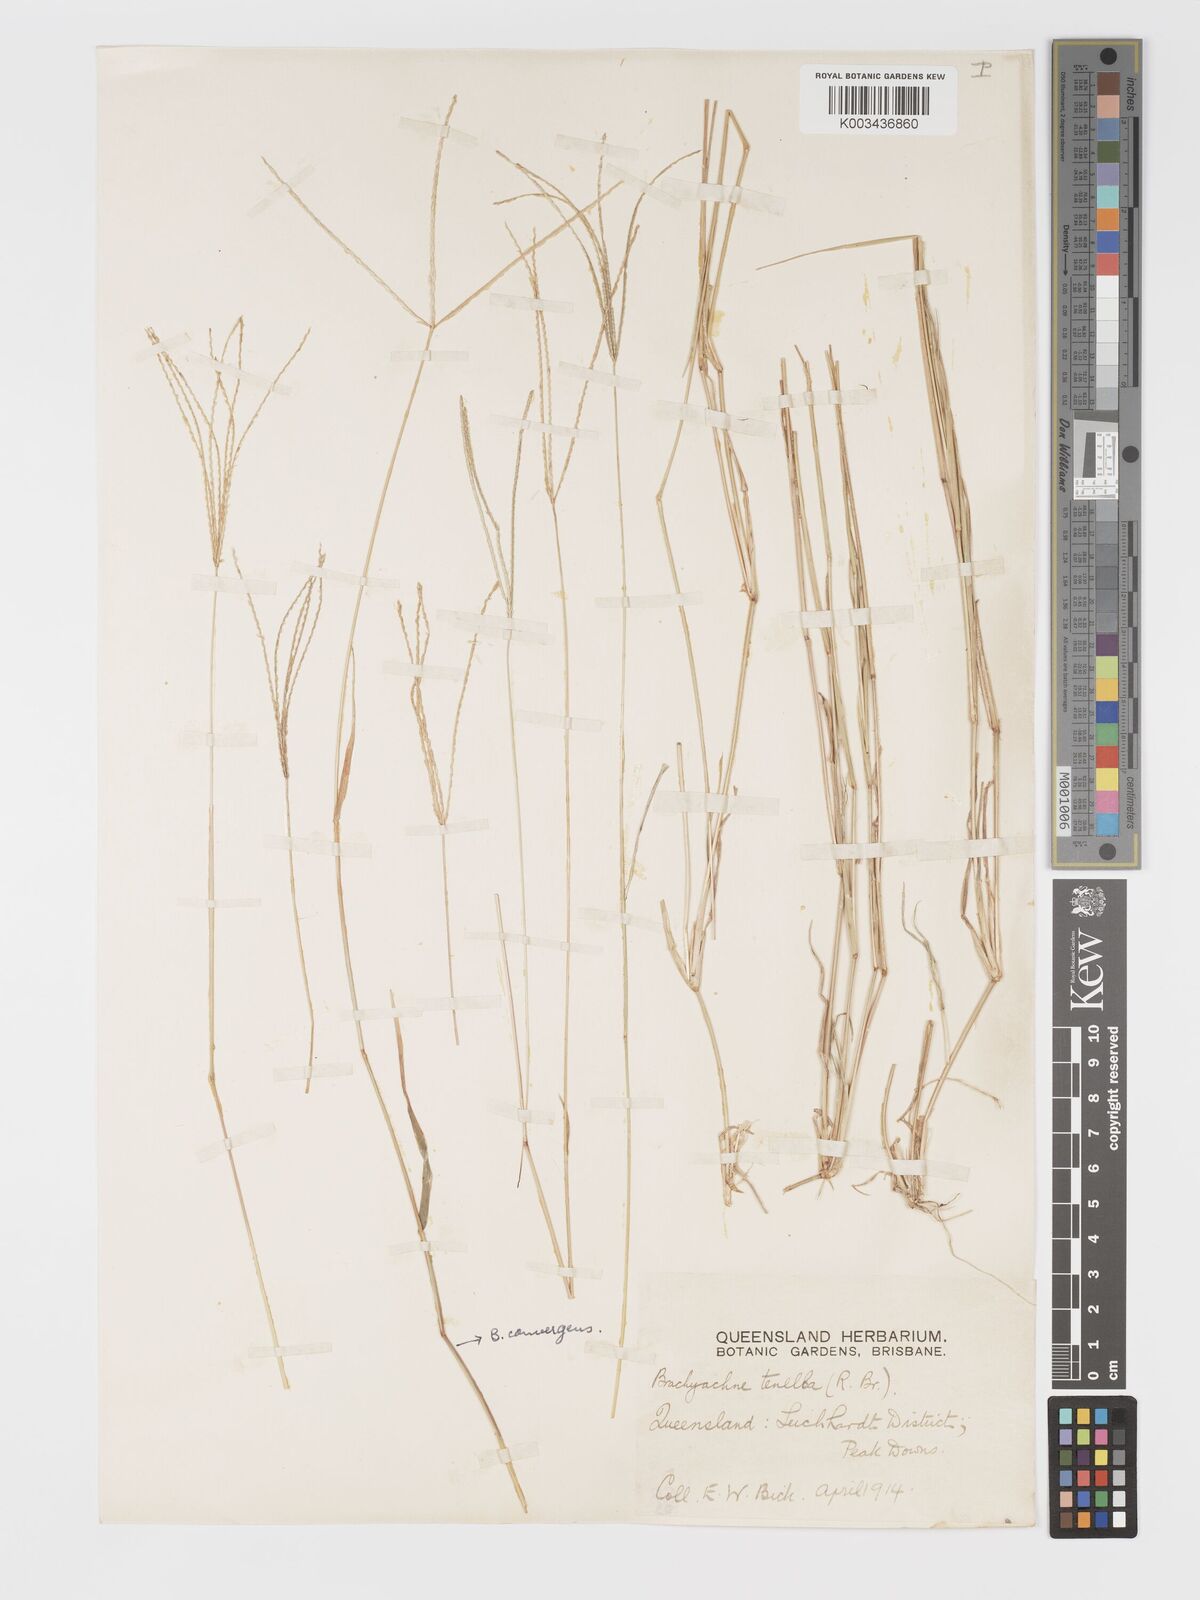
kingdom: Plantae
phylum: Tracheophyta
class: Liliopsida
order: Poales
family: Poaceae
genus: Cynodon
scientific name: Cynodon tenellus
